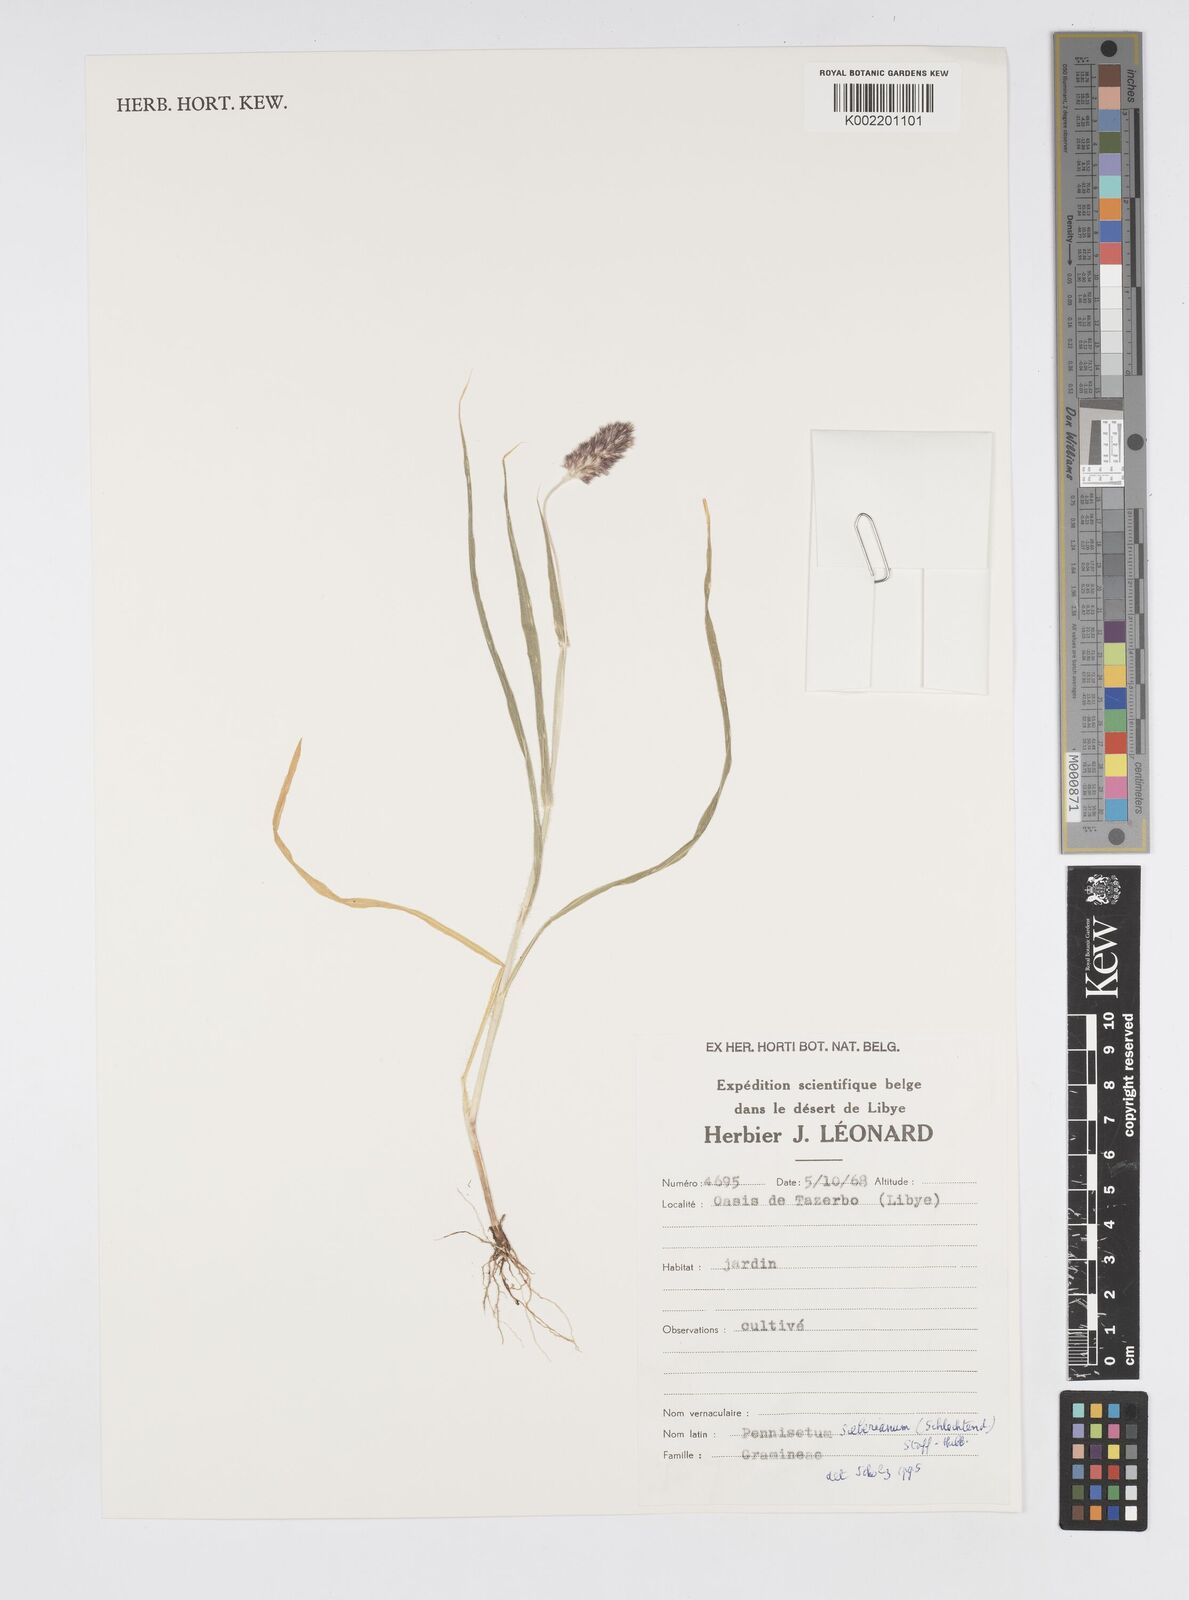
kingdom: Plantae
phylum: Tracheophyta
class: Liliopsida
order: Poales
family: Poaceae
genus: Cenchrus
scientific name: Cenchrus sieberianus
